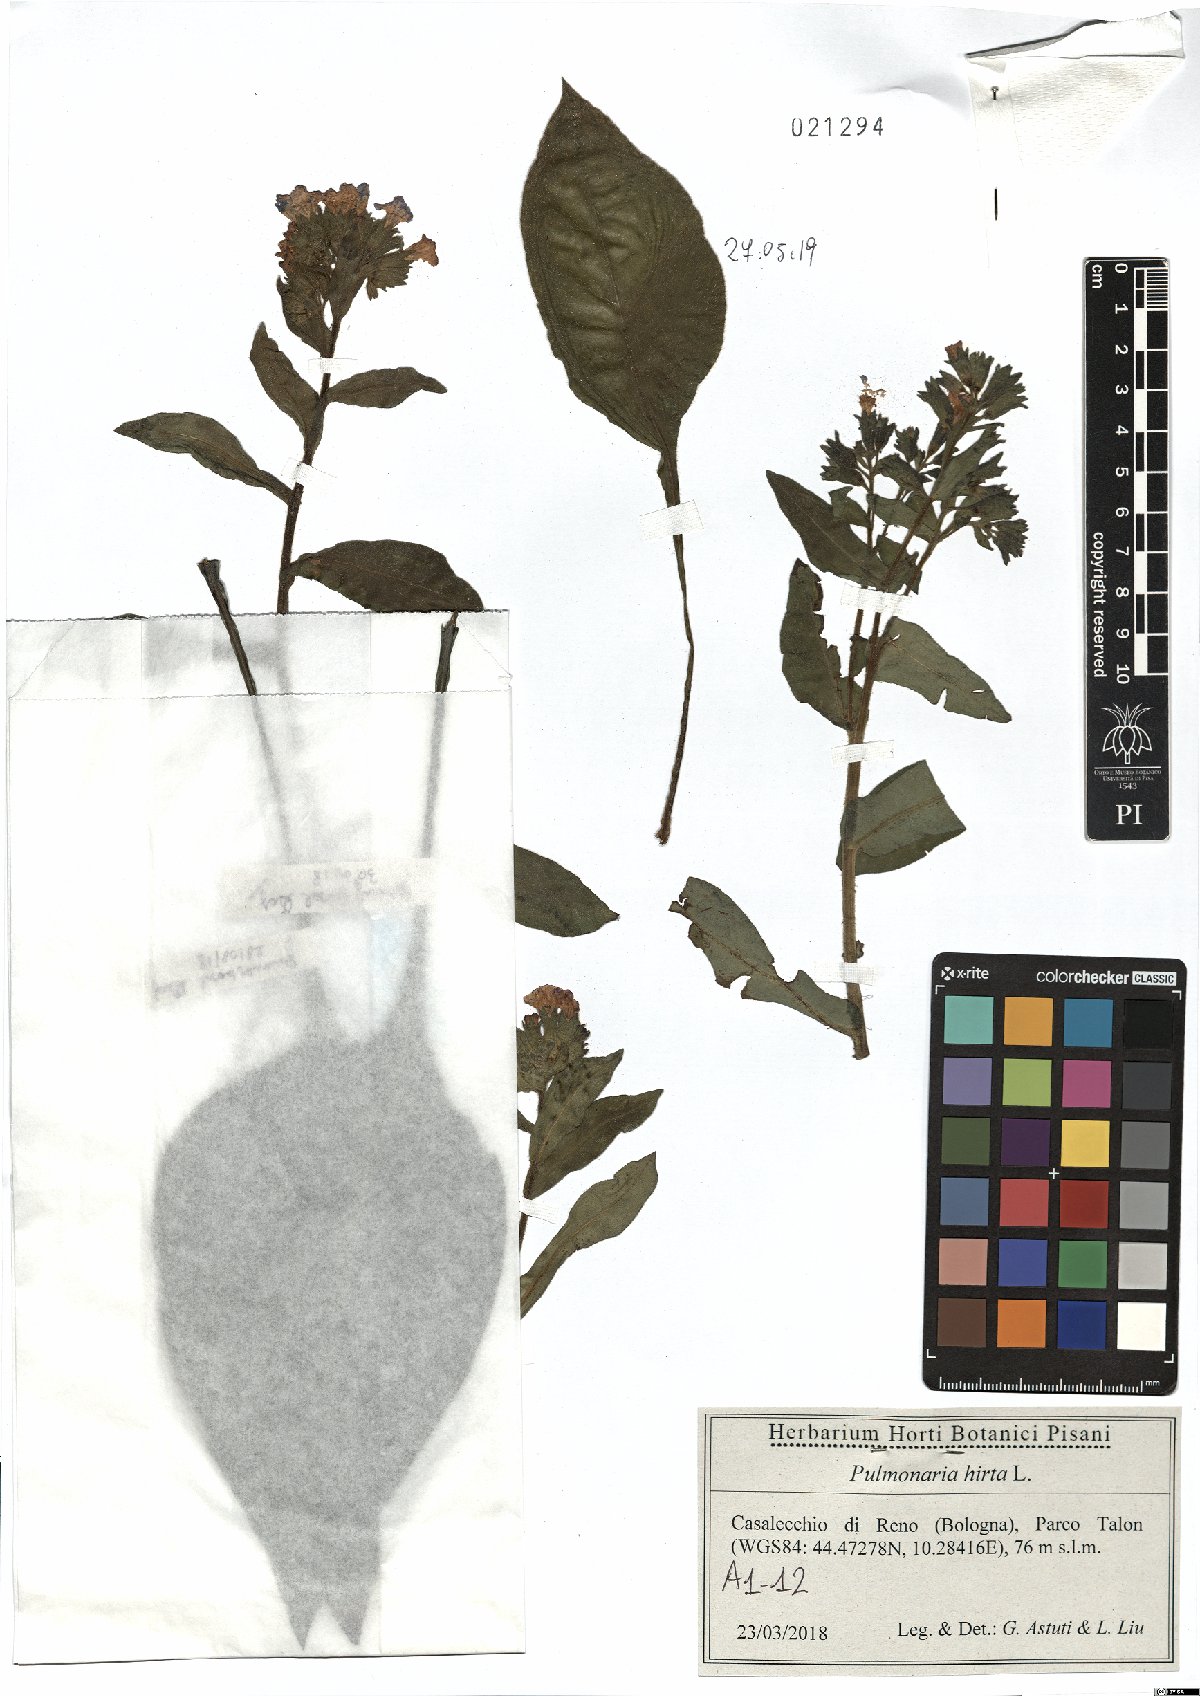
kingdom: Plantae
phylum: Tracheophyta
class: Magnoliopsida
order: Boraginales
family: Boraginaceae
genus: Pulmonaria
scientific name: Pulmonaria hirta
